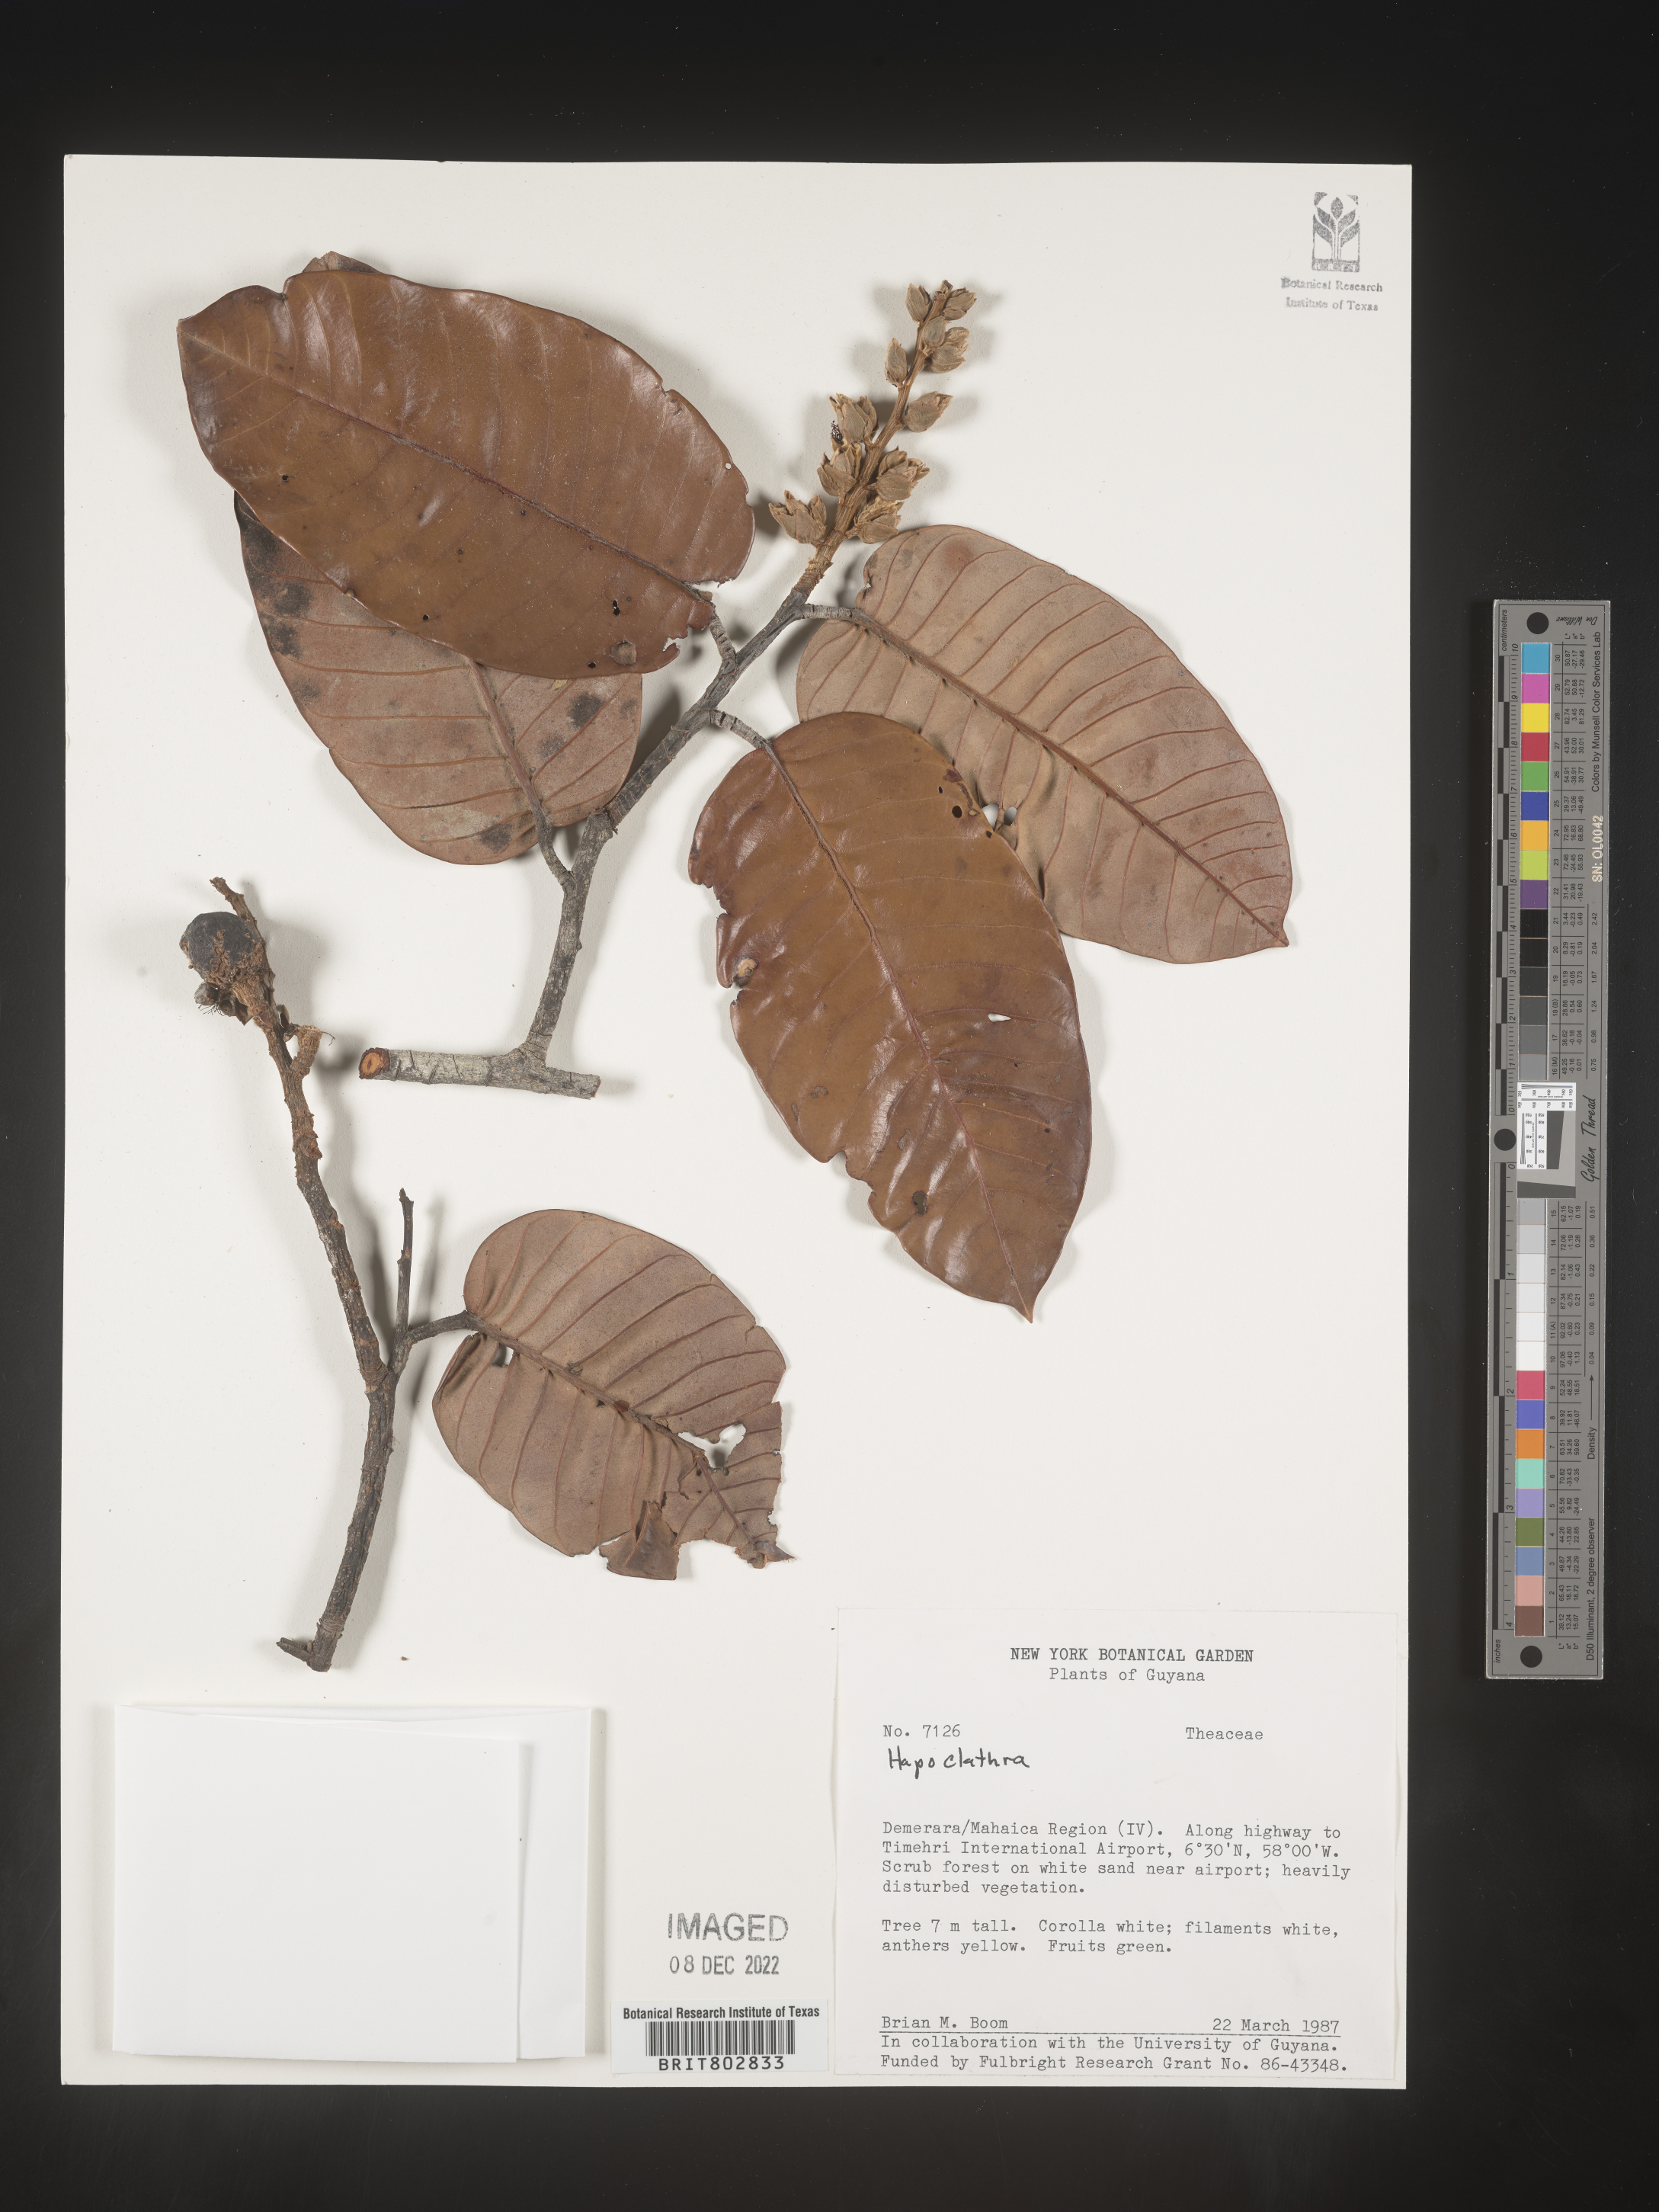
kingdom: Plantae
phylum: Tracheophyta
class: Magnoliopsida
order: Malpighiales
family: Calophyllaceae
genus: Haploclathra
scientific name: Haploclathra
